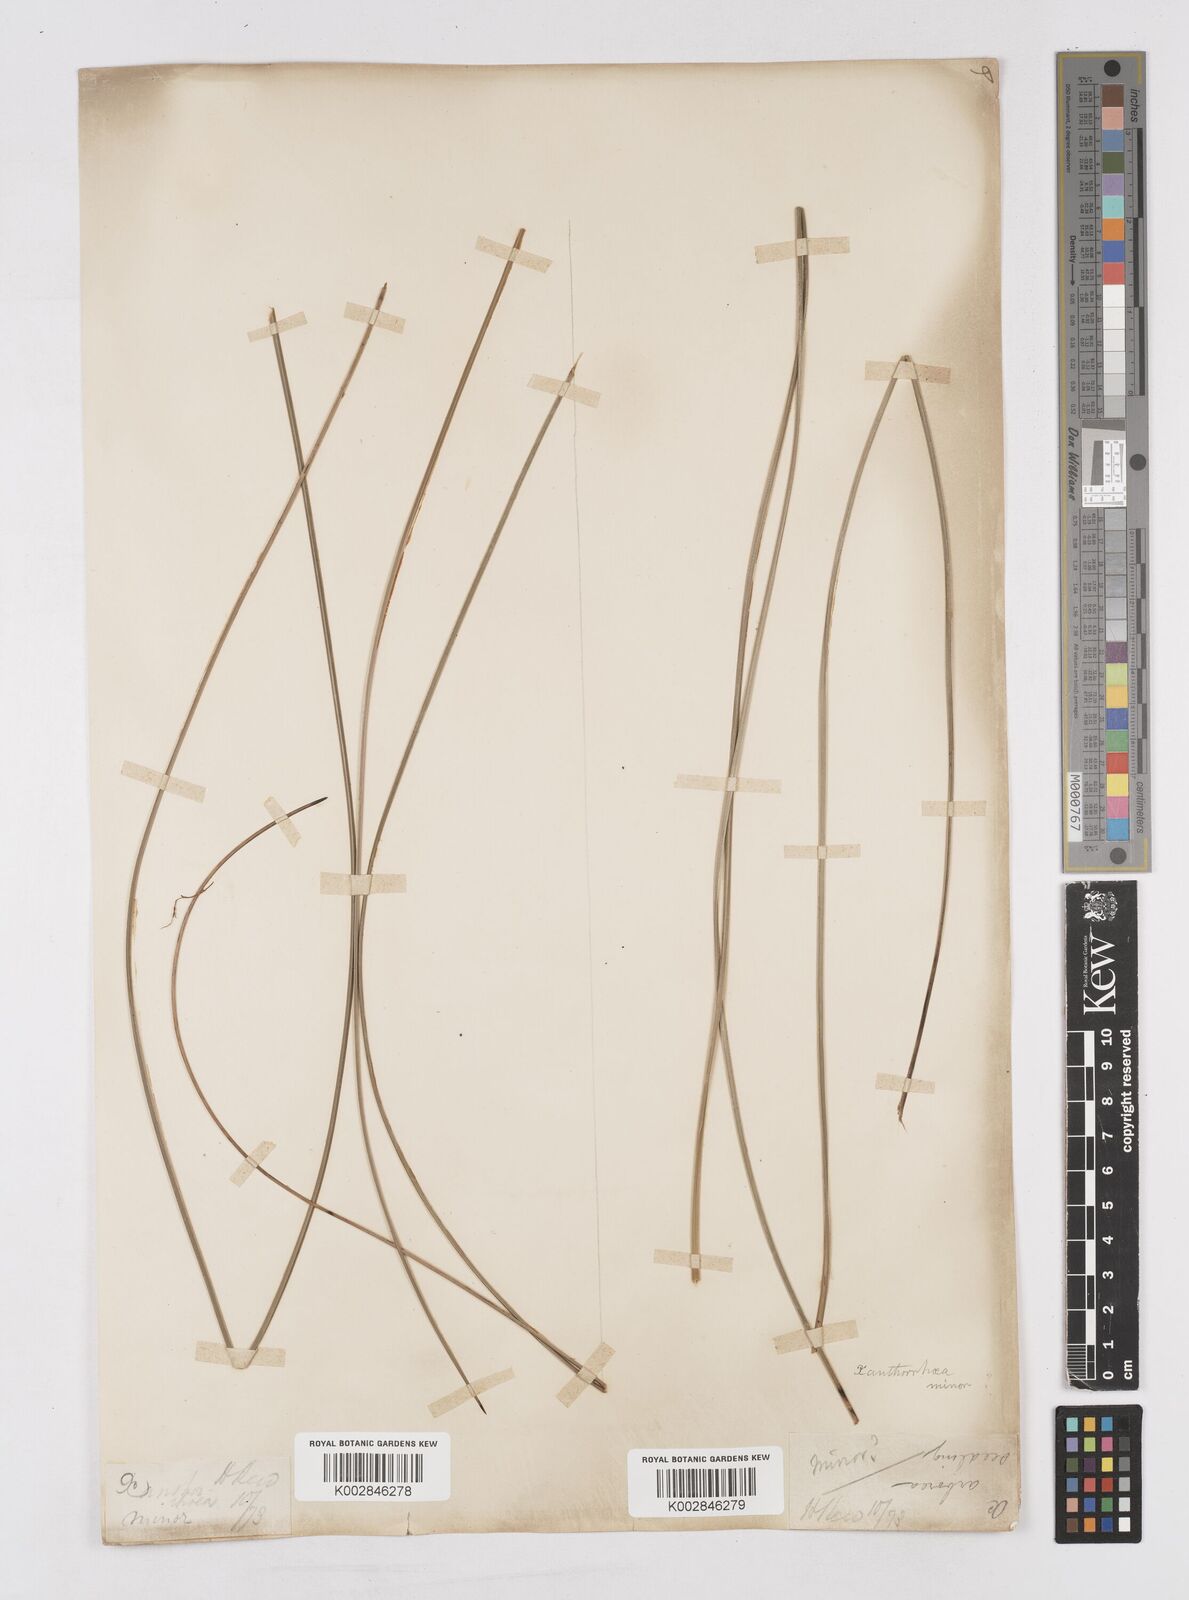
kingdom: Plantae
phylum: Tracheophyta
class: Liliopsida
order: Asparagales
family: Asphodelaceae
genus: Xanthorrhoea
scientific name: Xanthorrhoea minor
